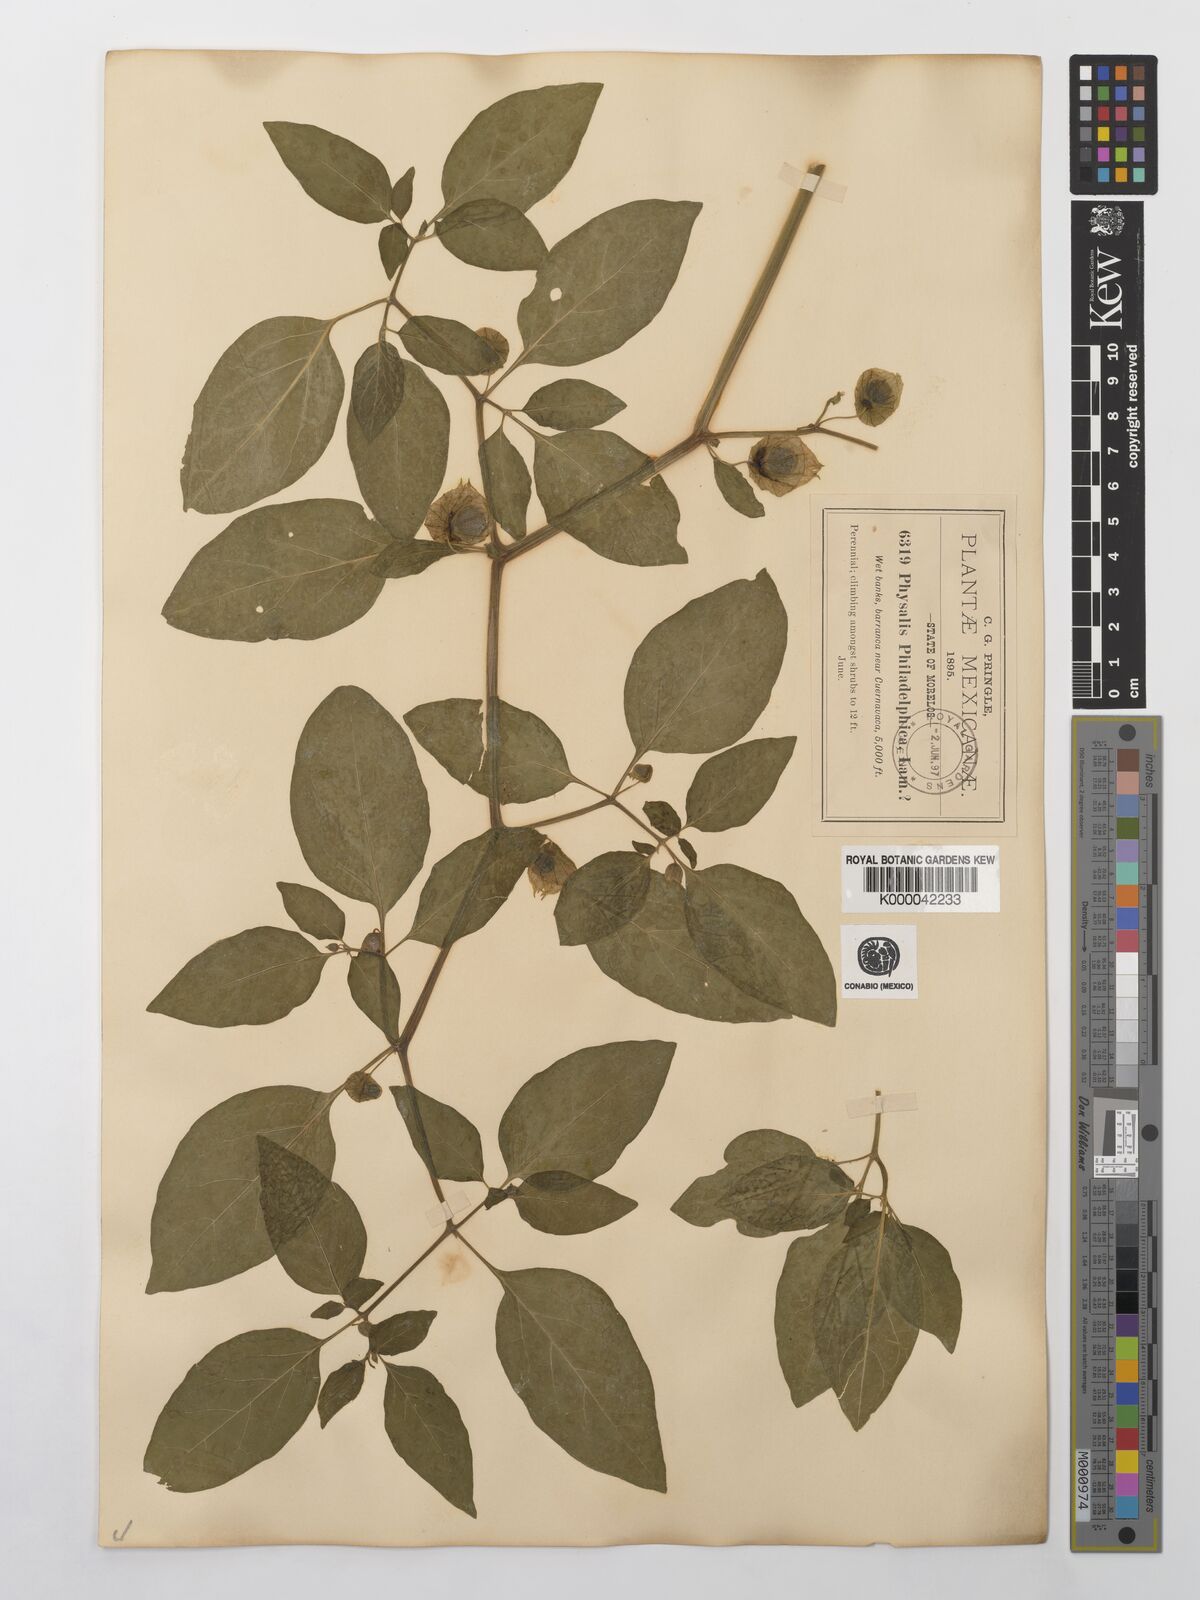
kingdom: Plantae
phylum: Tracheophyta
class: Magnoliopsida
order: Solanales
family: Solanaceae
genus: Physalis
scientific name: Physalis philadelphica
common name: Husk-tomato
